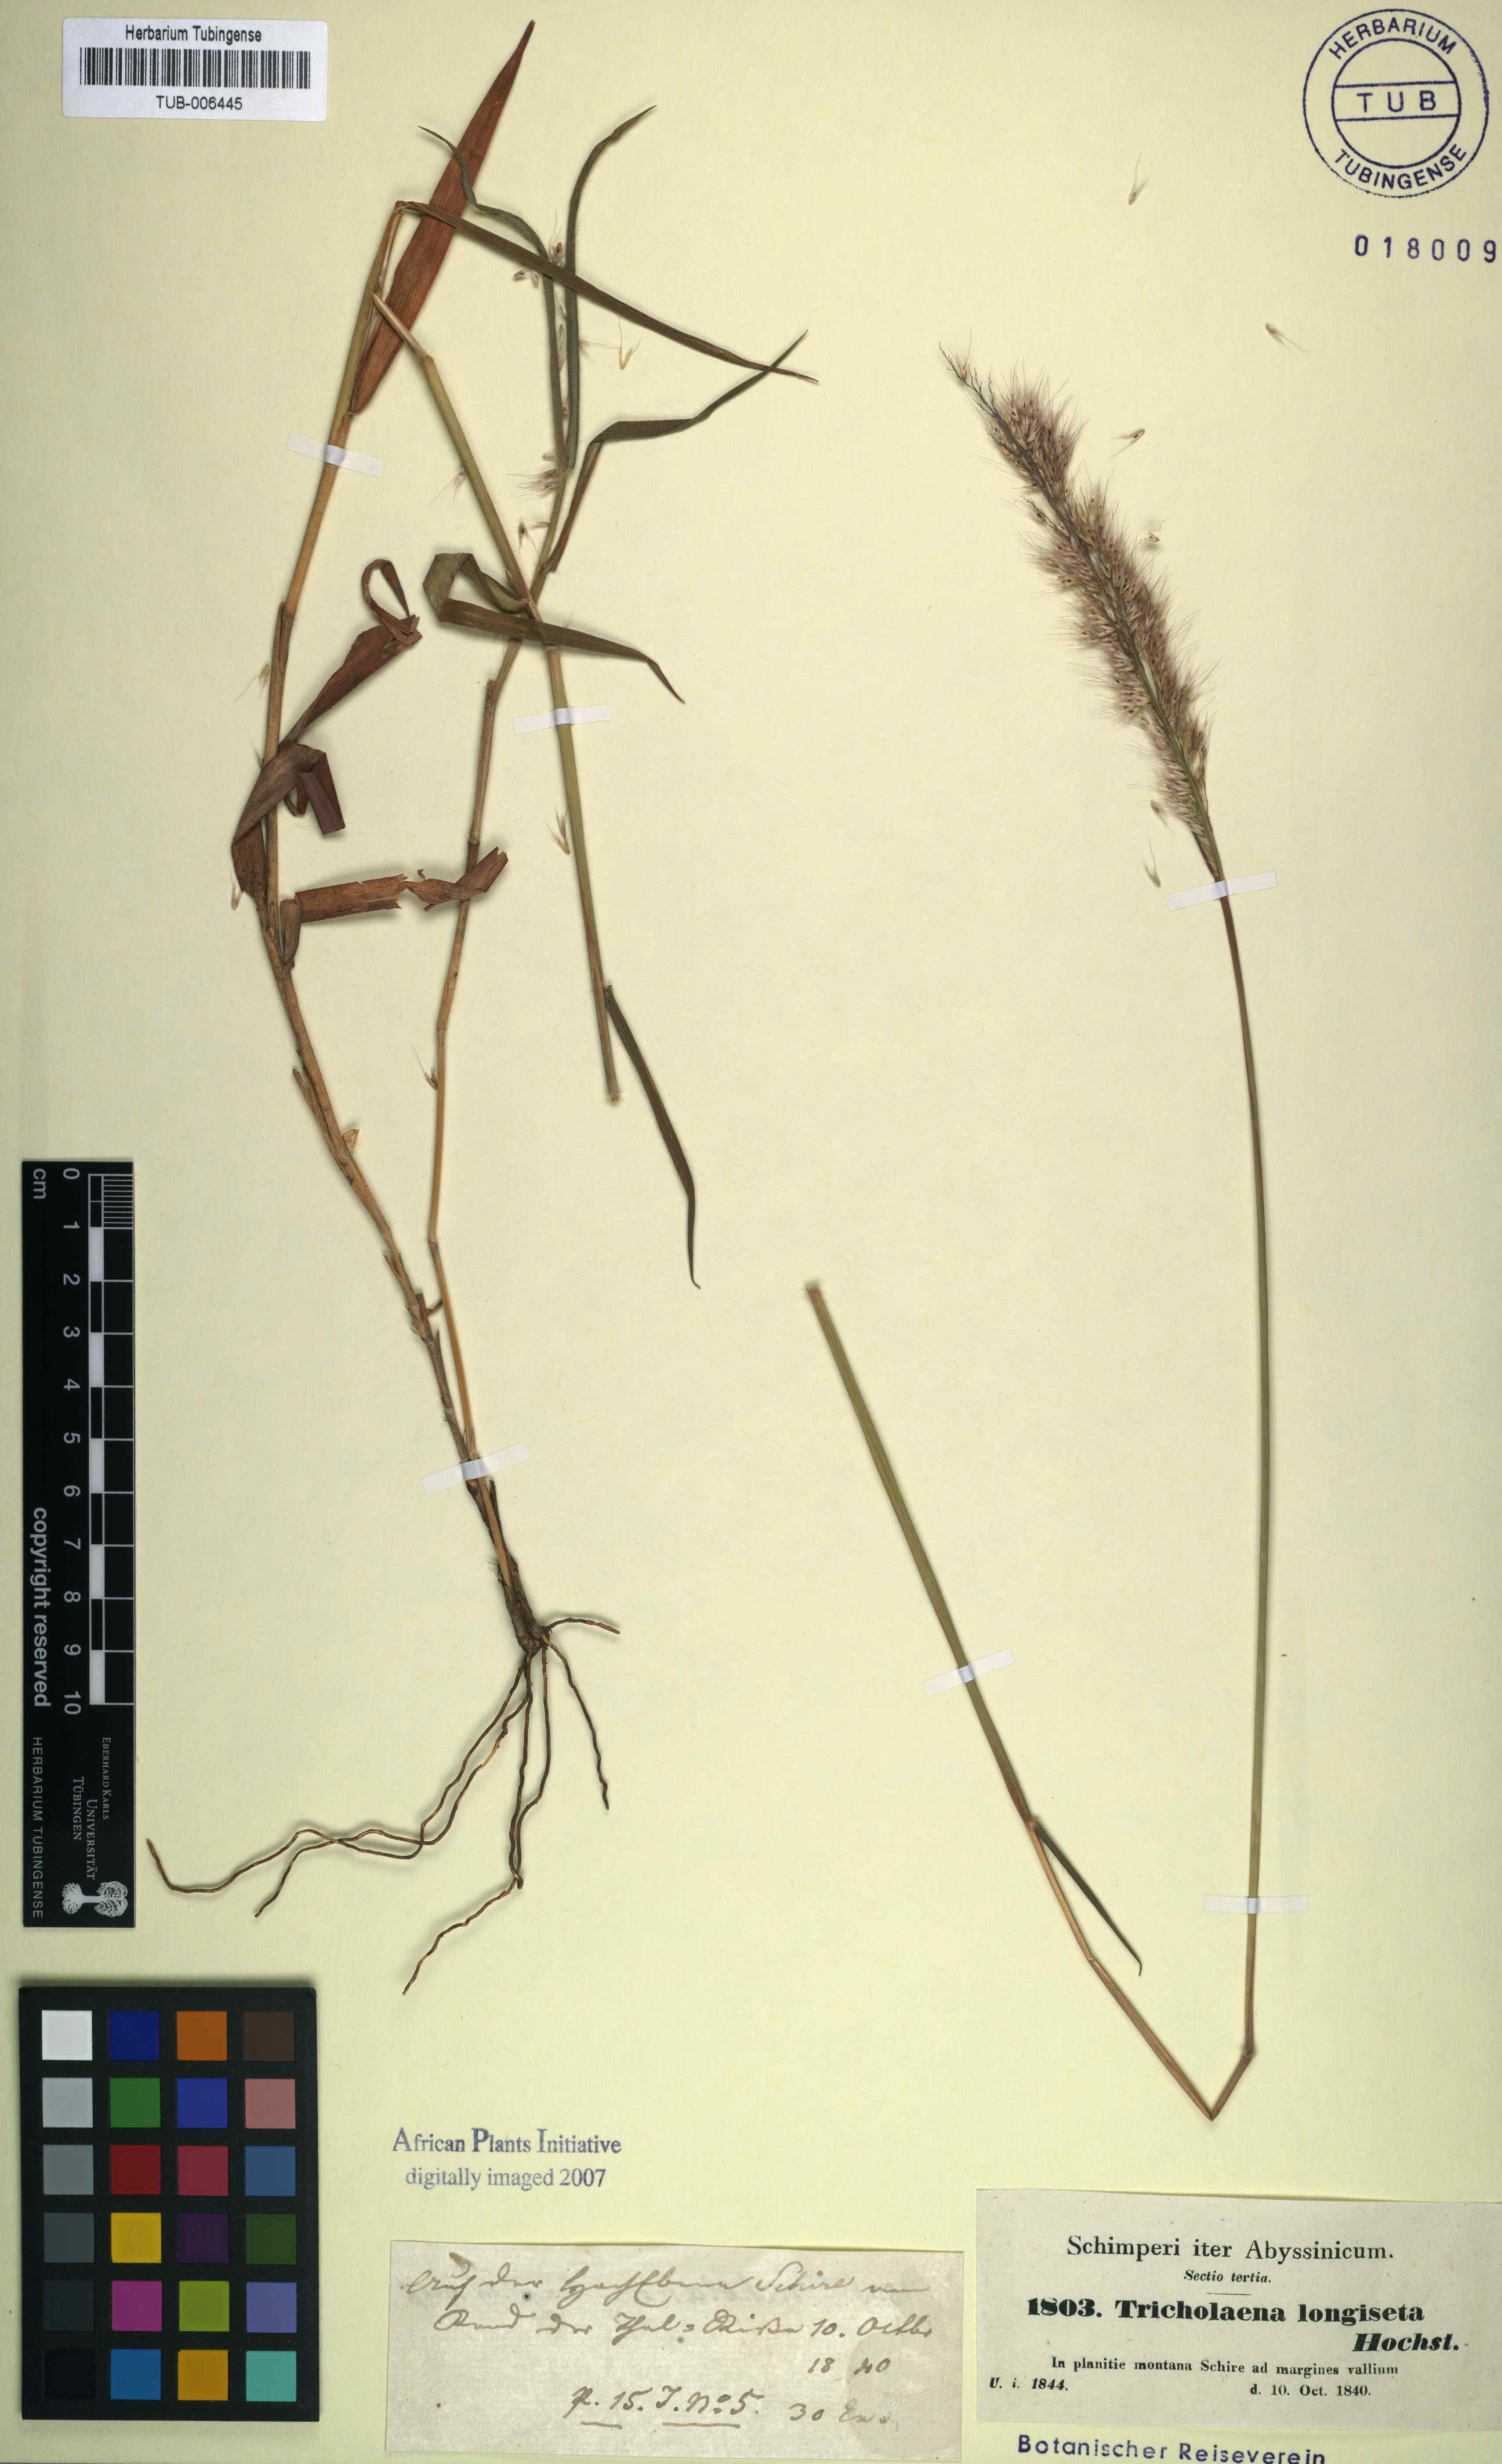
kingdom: Plantae
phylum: Tracheophyta
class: Liliopsida
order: Poales
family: Poaceae
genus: Melinis
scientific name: Melinis longiseta
